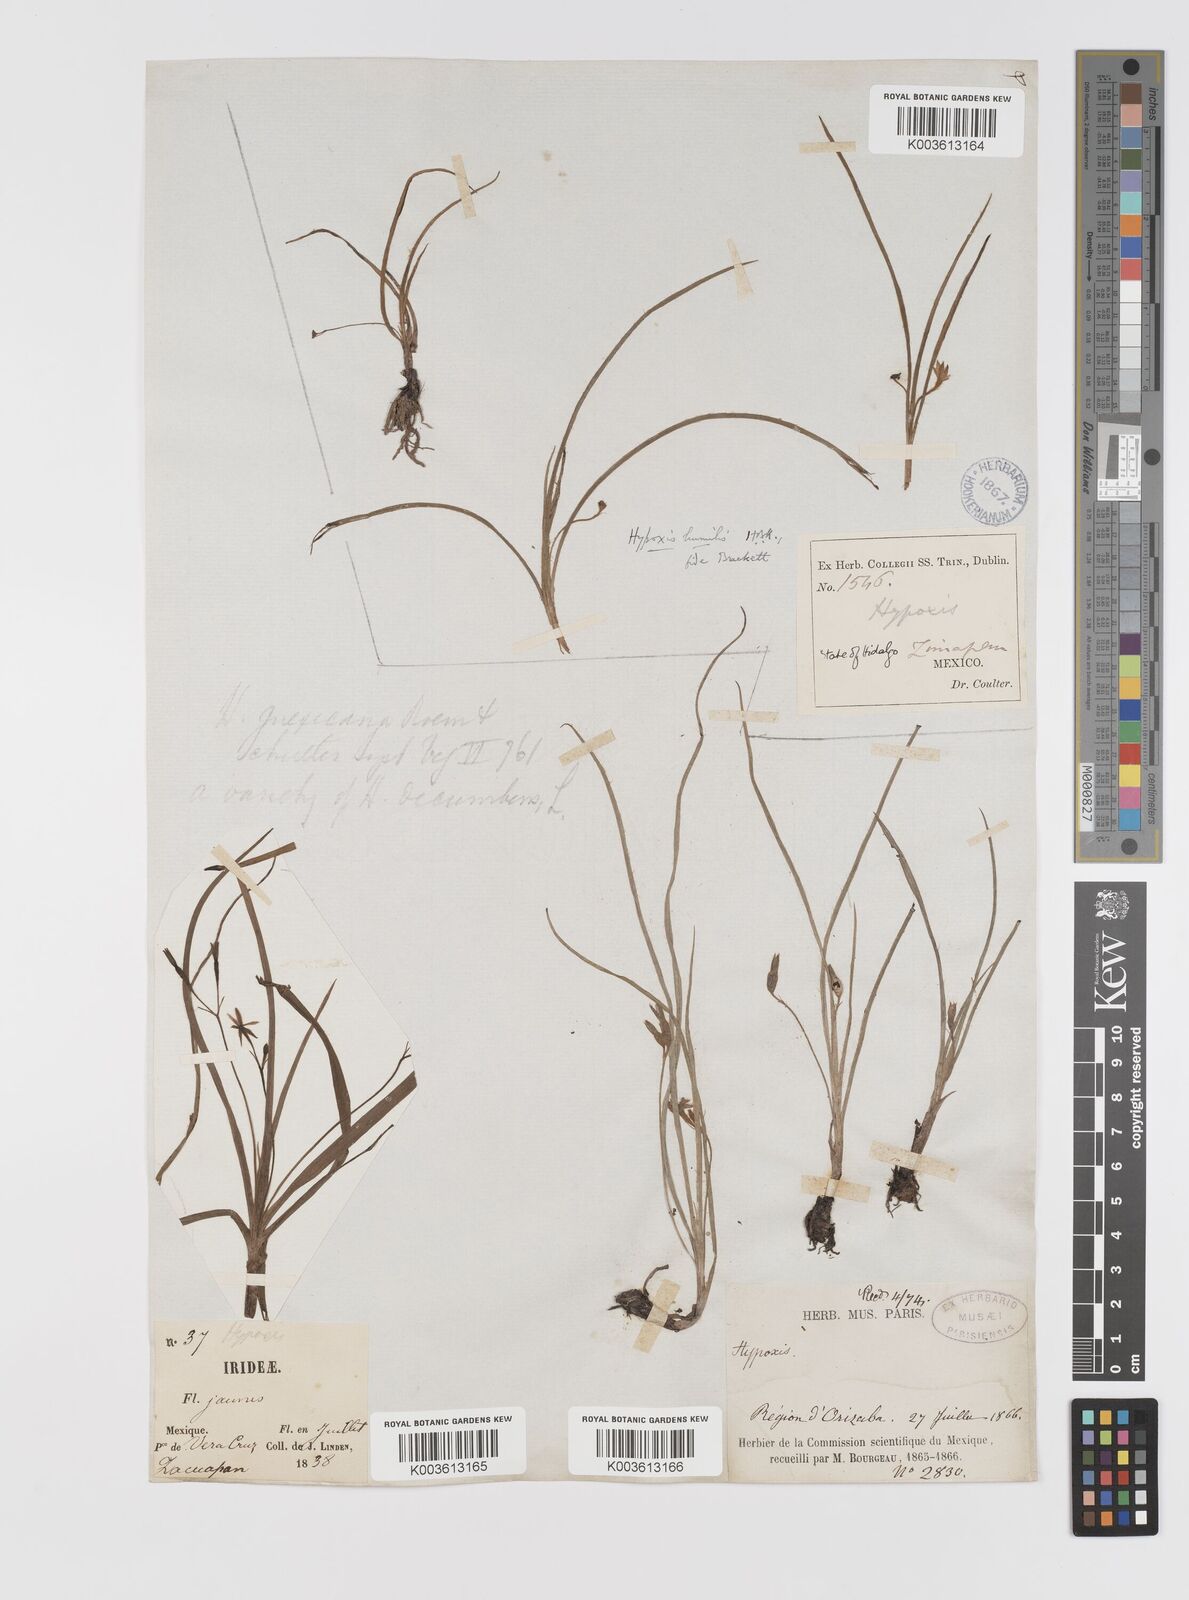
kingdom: Plantae
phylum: Tracheophyta
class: Liliopsida
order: Asparagales
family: Hypoxidaceae
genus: Hypoxis
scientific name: Hypoxis decumbens
